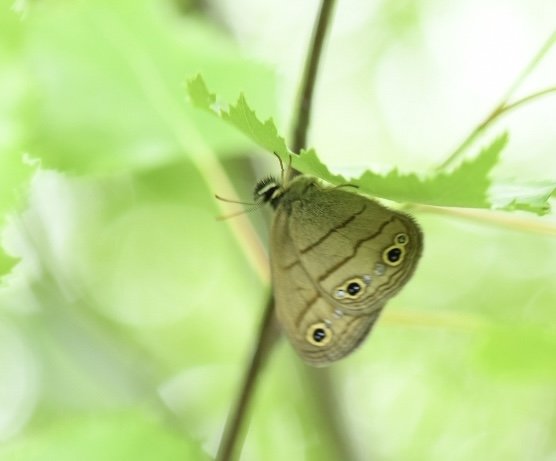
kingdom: Animalia
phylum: Arthropoda
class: Insecta
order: Lepidoptera
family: Nymphalidae
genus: Euptychia
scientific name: Euptychia cymela
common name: Little Wood Satyr
